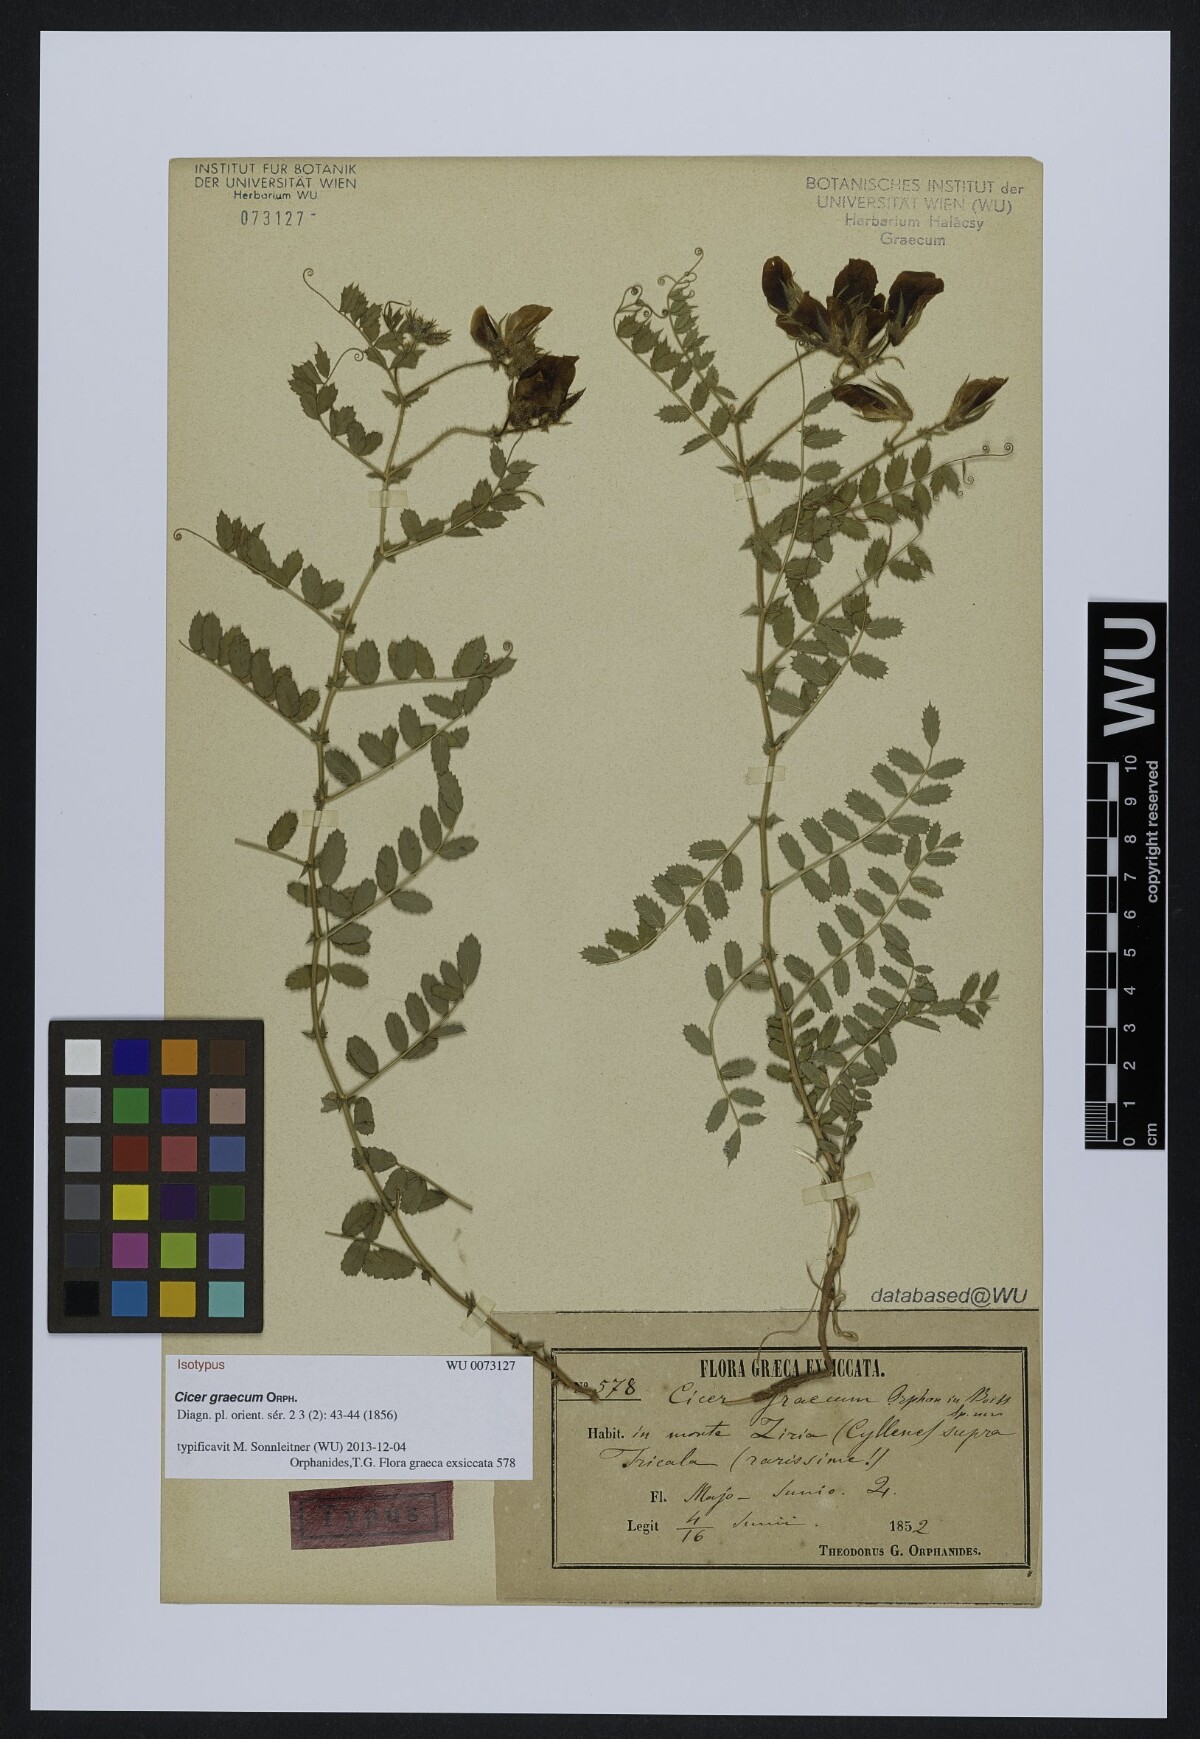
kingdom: Plantae
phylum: Tracheophyta
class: Magnoliopsida
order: Fabales
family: Fabaceae
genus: Cicer
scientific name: Cicer graecum
